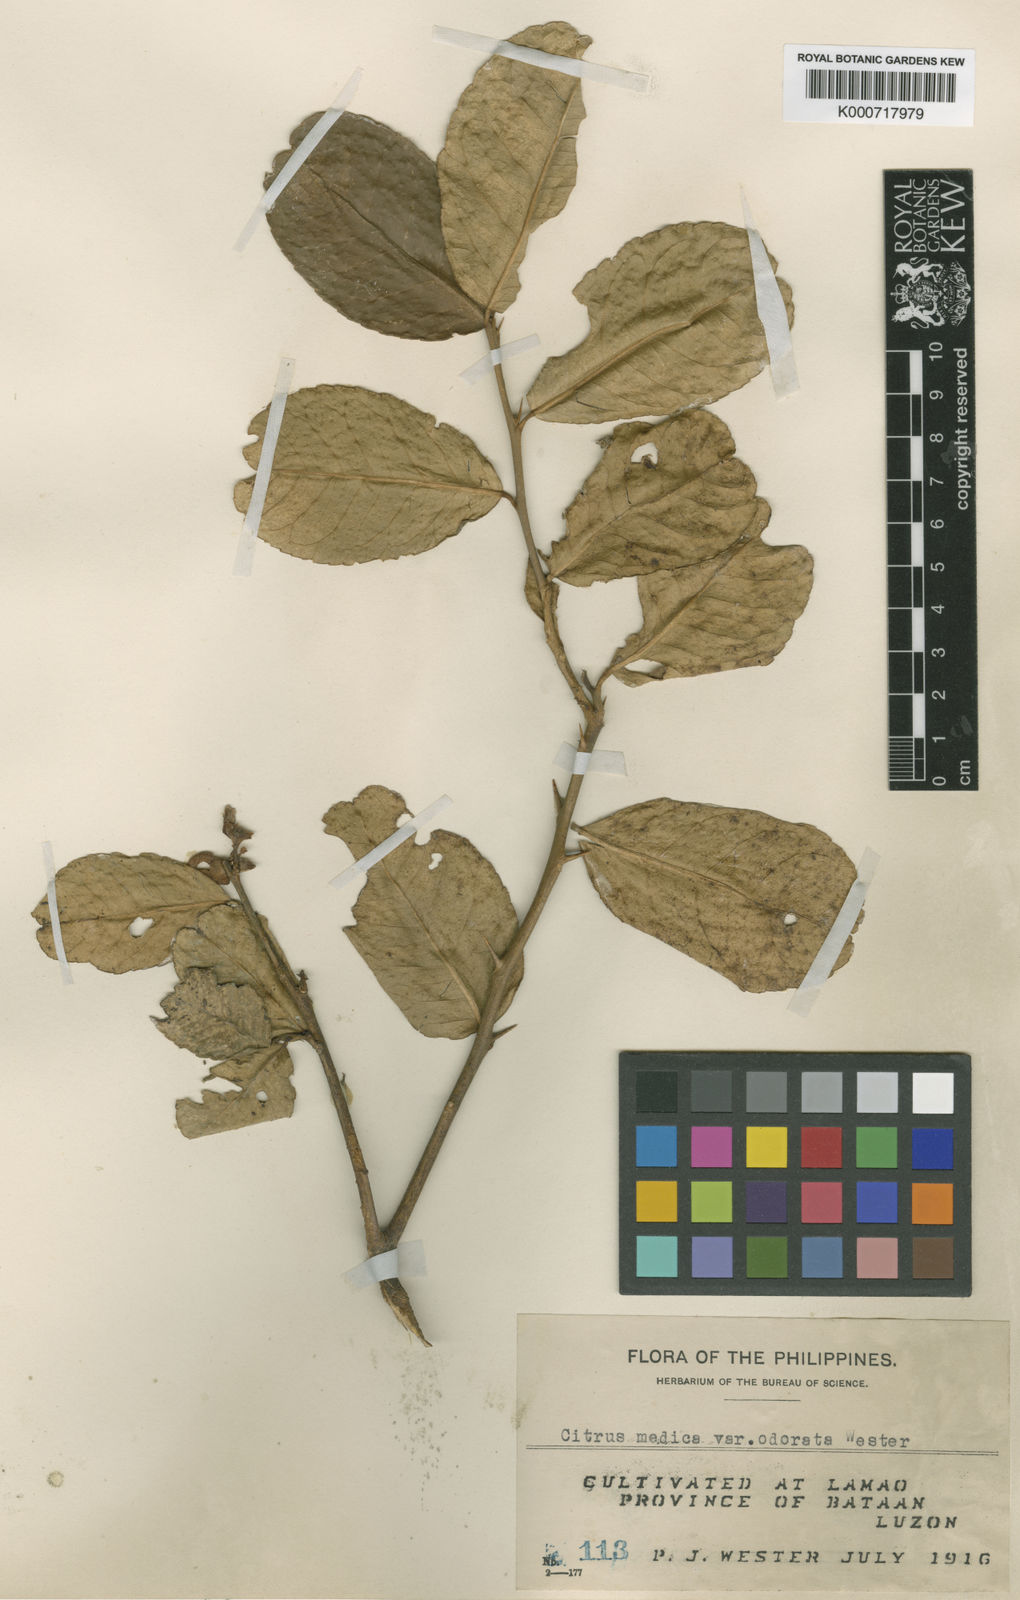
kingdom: Plantae
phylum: Tracheophyta
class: Magnoliopsida
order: Sapindales
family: Rutaceae
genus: Citrus
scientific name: Citrus medica
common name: Citron
